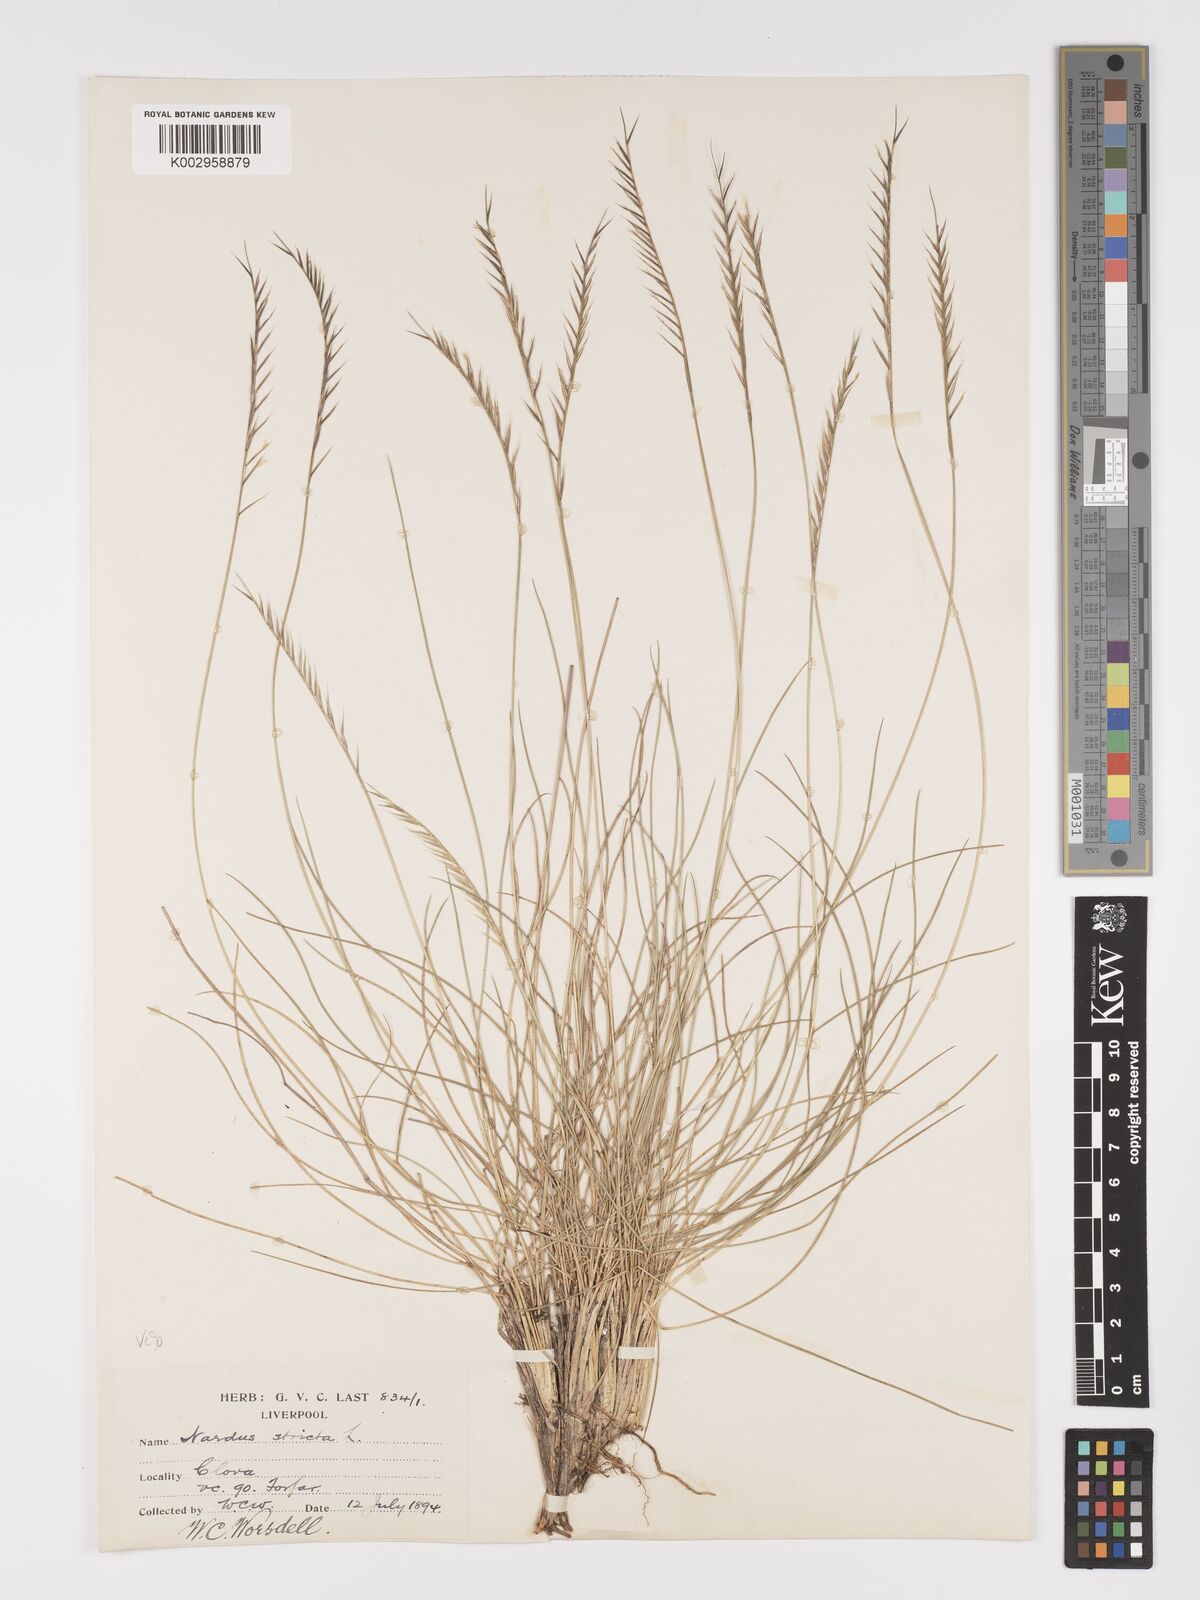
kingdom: Plantae
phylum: Tracheophyta
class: Liliopsida
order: Poales
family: Poaceae
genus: Nardus
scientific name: Nardus stricta
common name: Mat-grass
